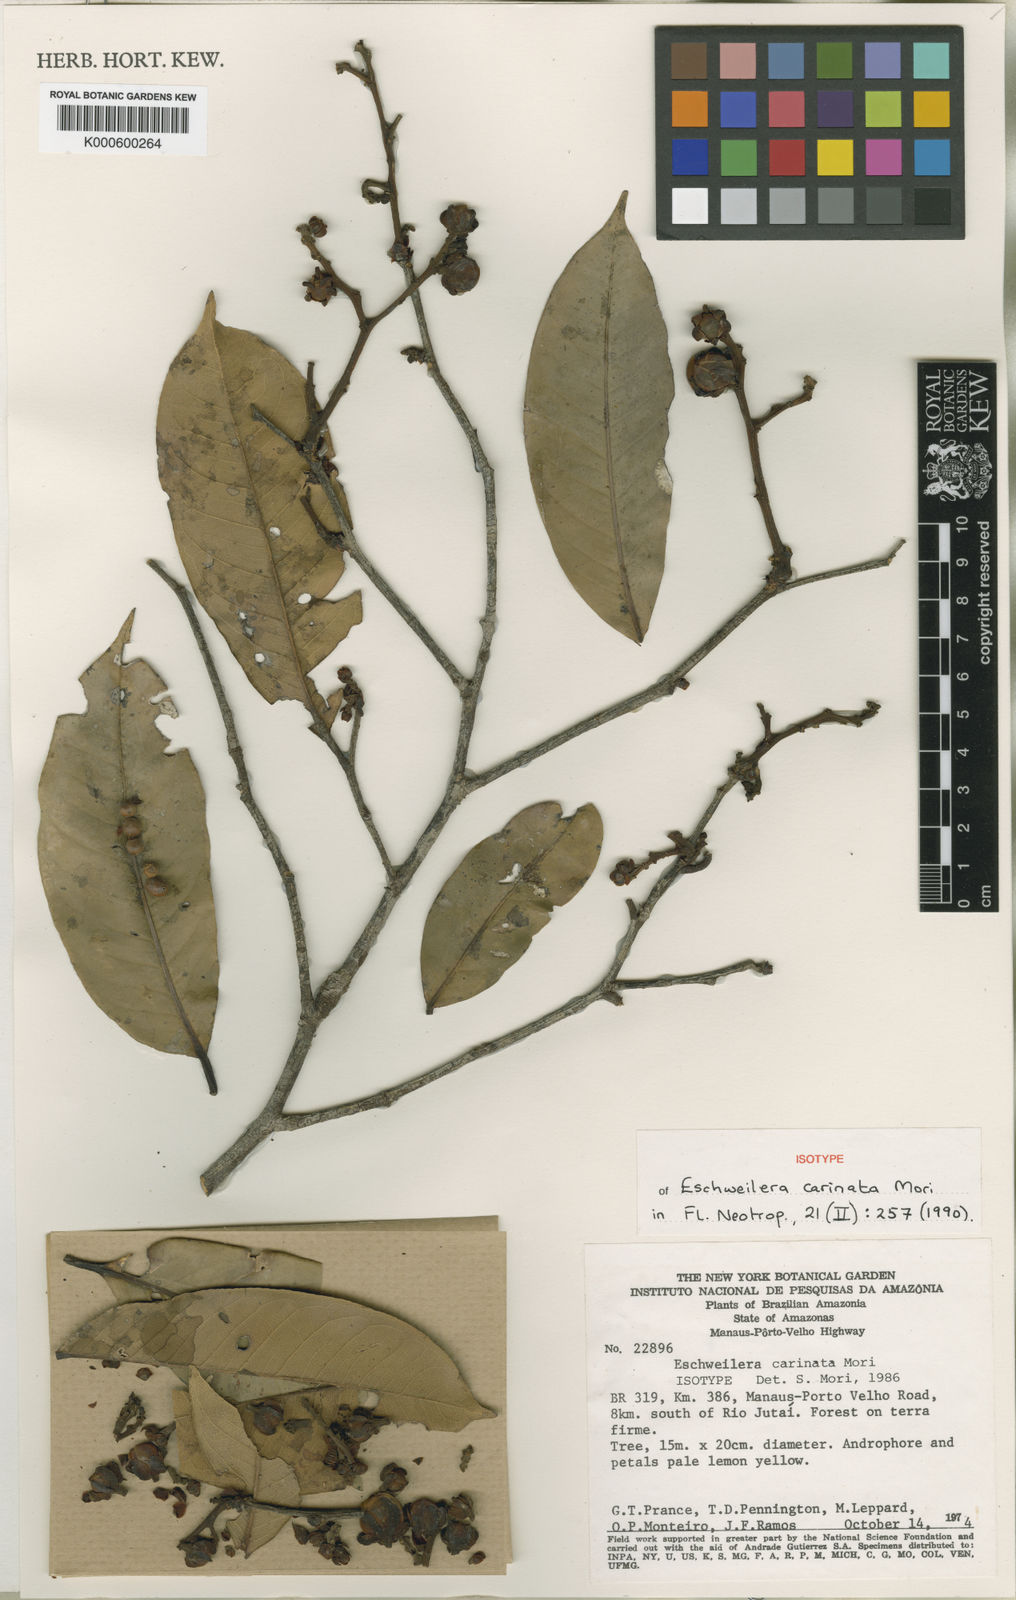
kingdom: Plantae
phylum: Tracheophyta
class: Magnoliopsida
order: Ericales
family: Lecythidaceae
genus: Eschweilera
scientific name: Eschweilera carinata
